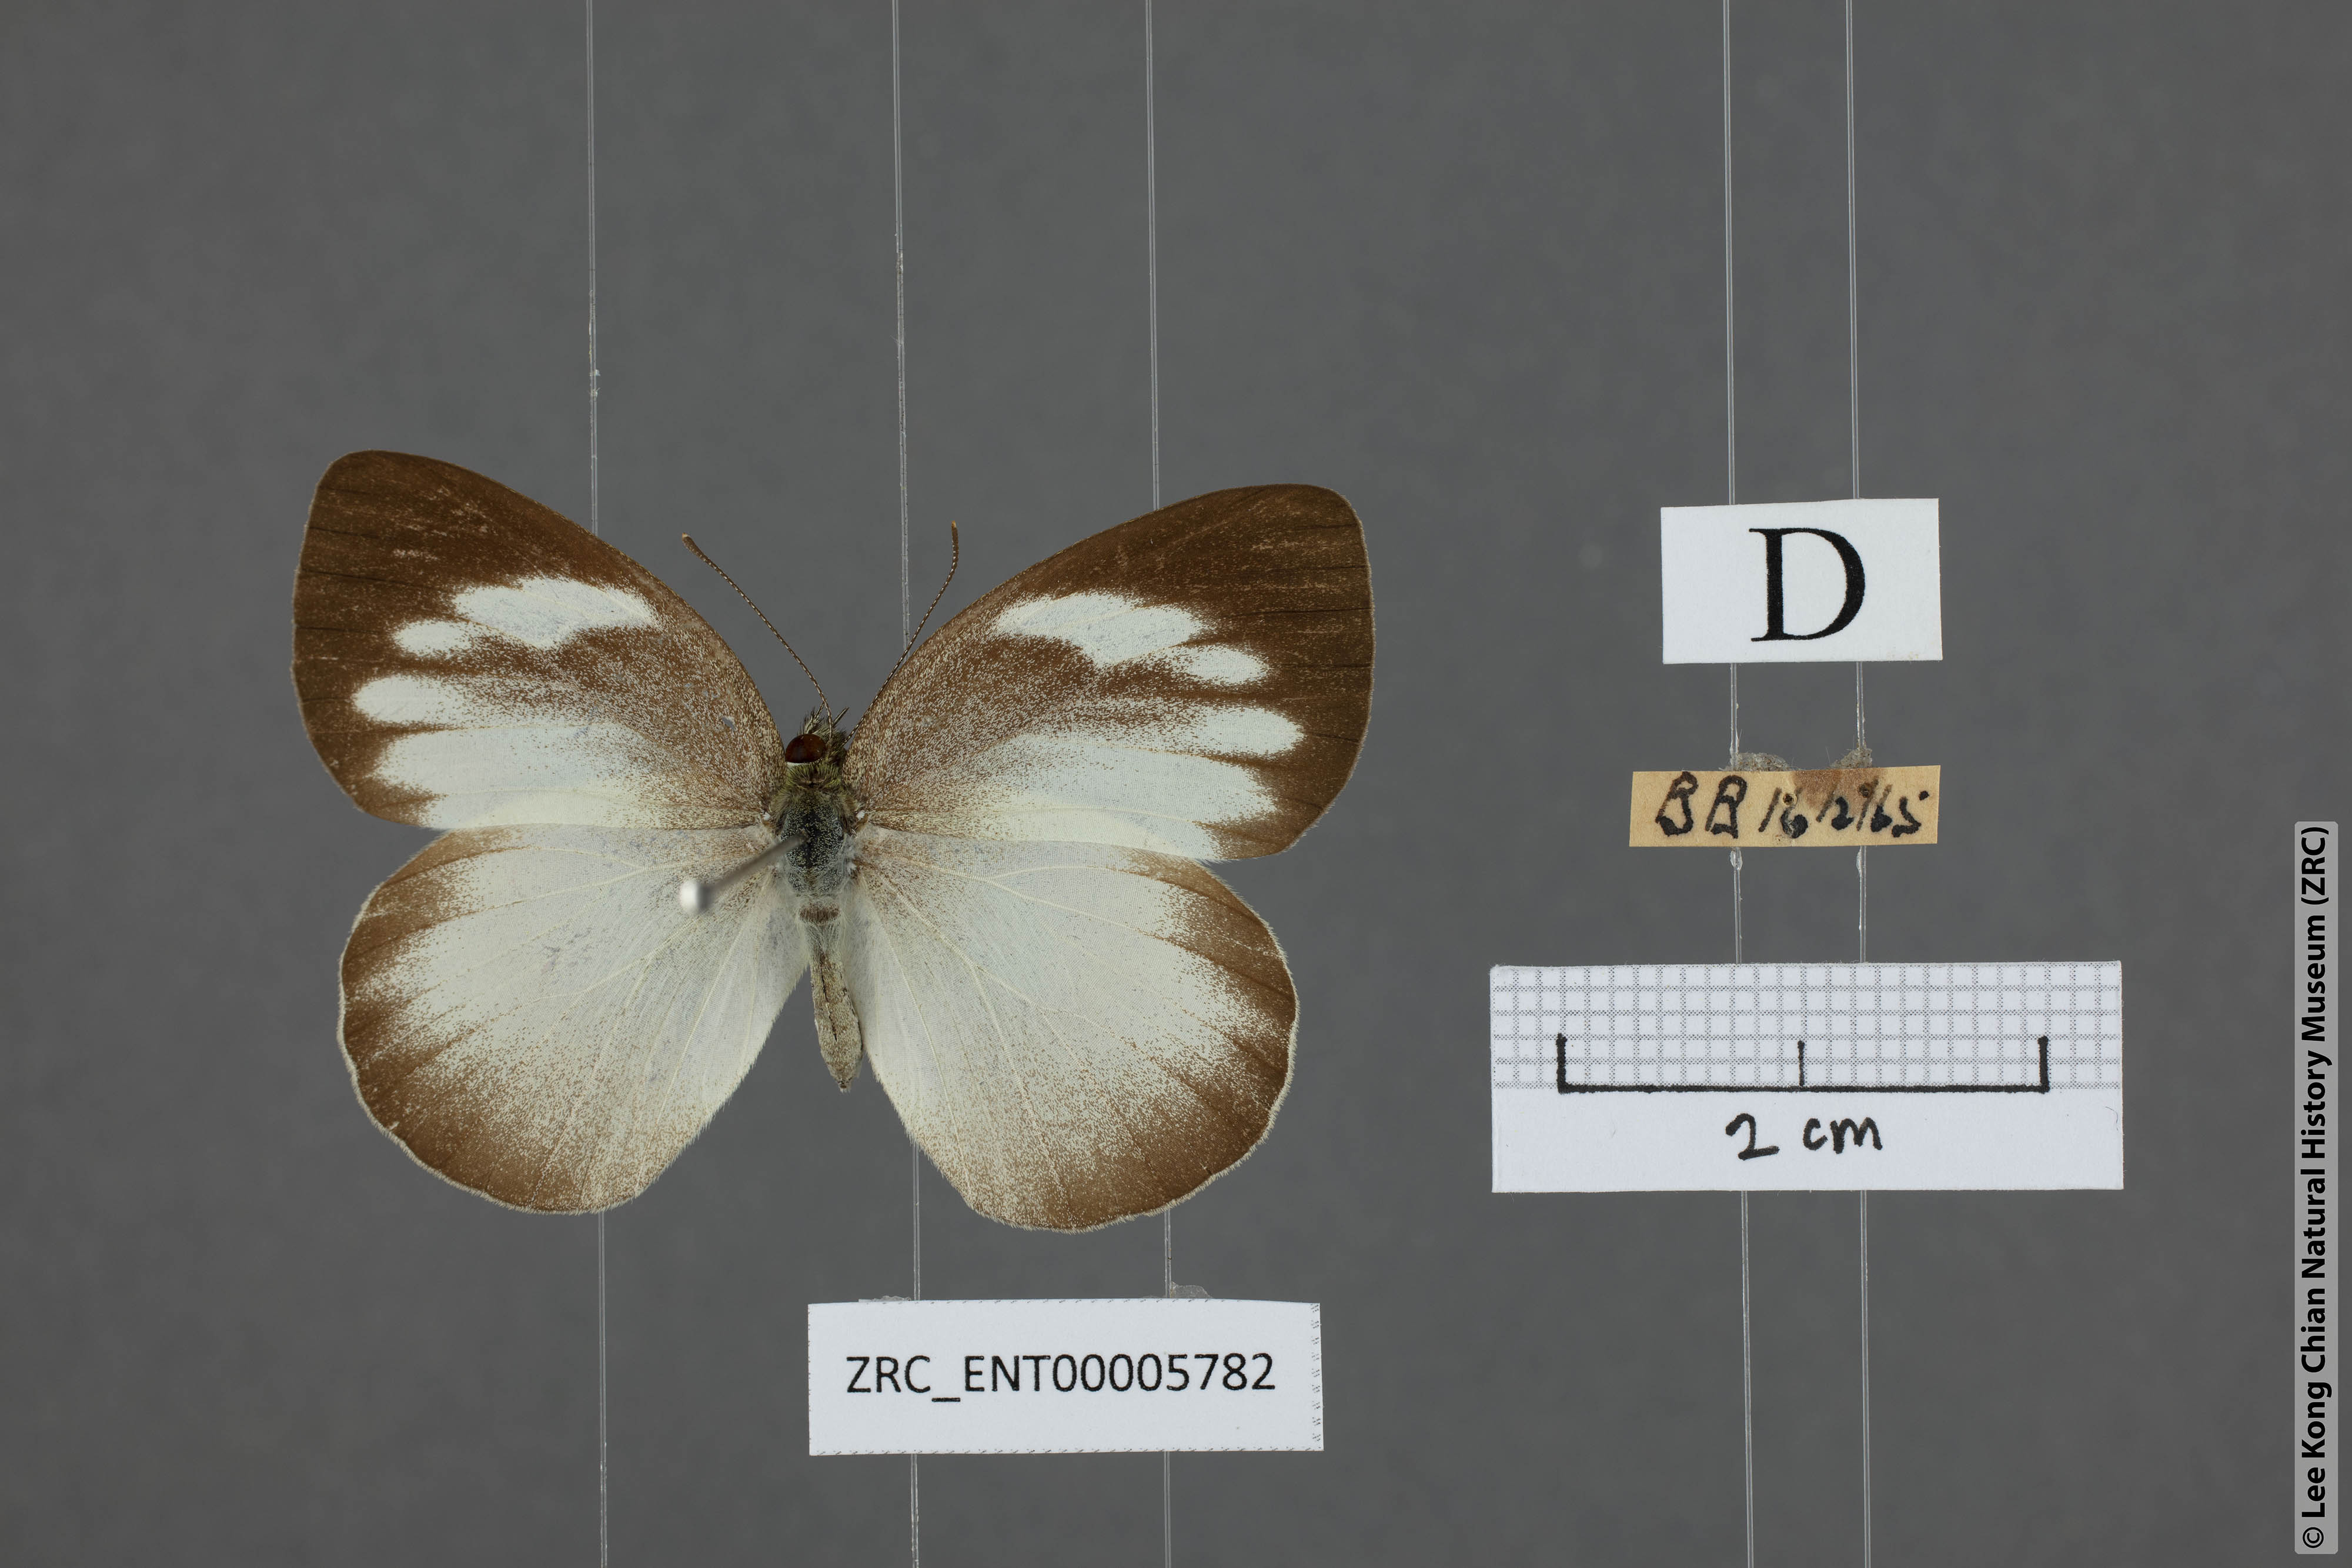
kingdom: Animalia
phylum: Arthropoda
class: Insecta
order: Lepidoptera
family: Pieridae
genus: Phrissura
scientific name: Phrissura aegis
